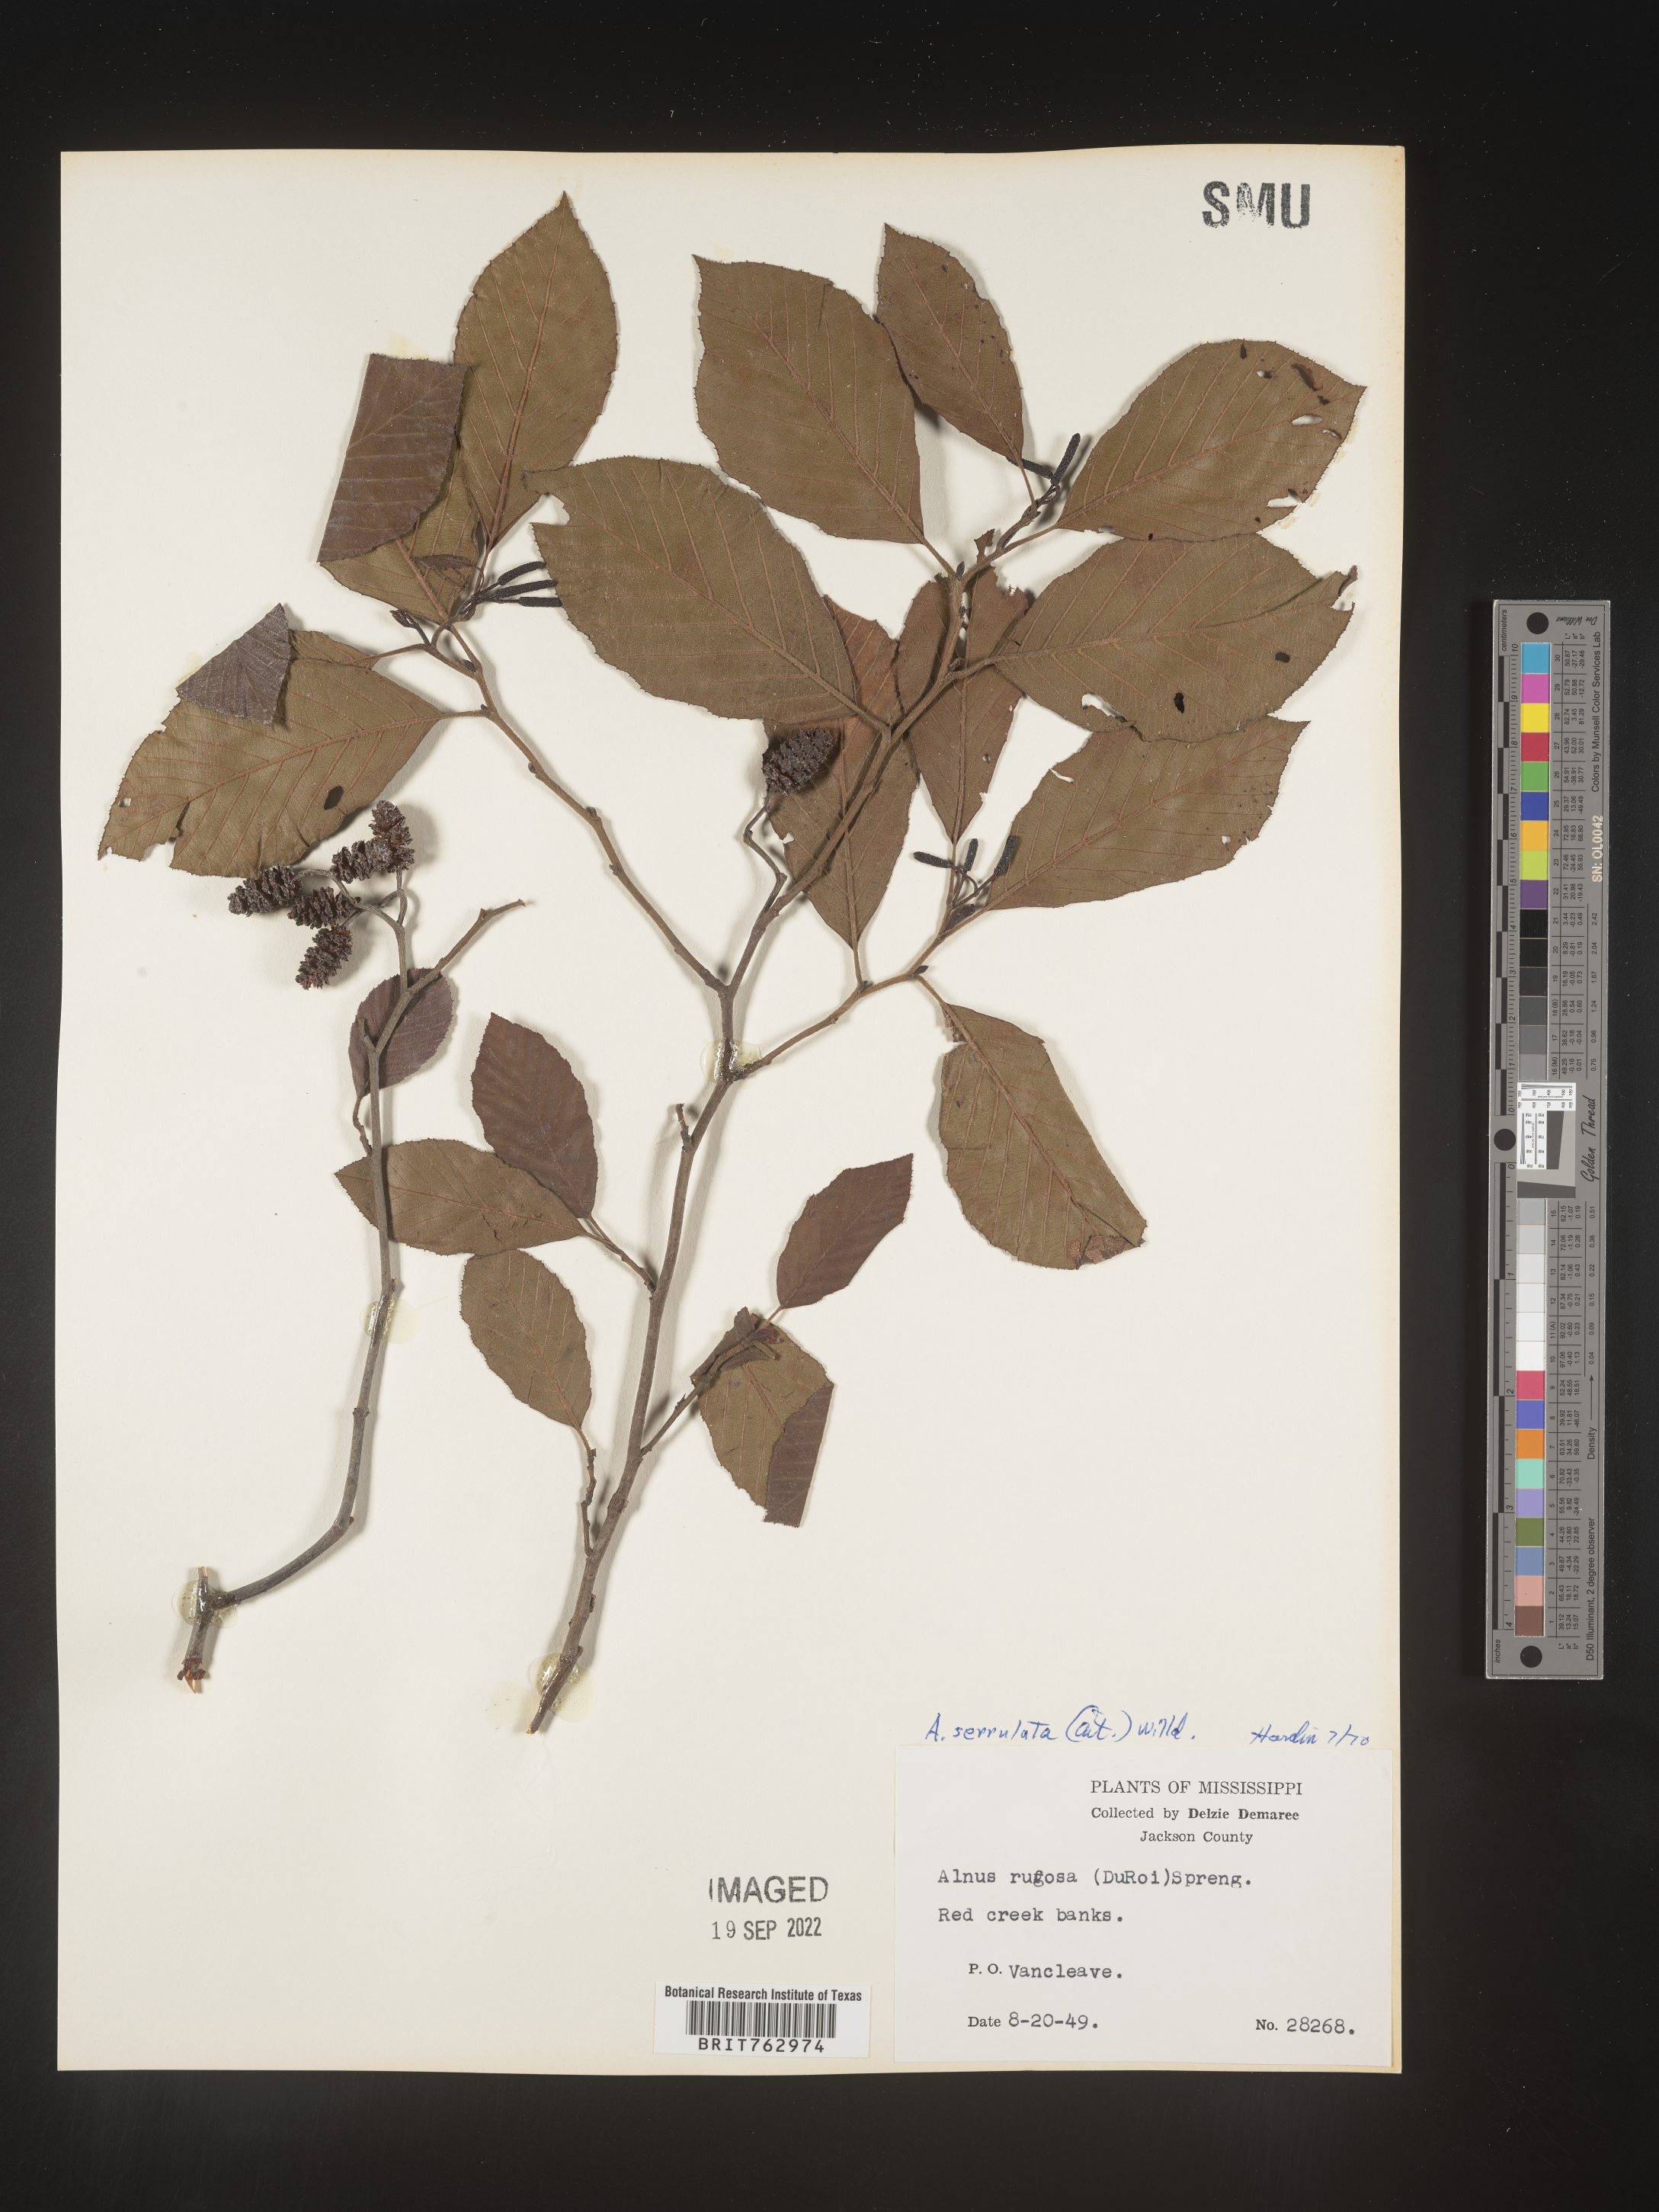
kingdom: Plantae
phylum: Tracheophyta
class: Magnoliopsida
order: Fagales
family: Betulaceae
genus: Alnus
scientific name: Alnus serrulata
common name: Hazel alder
